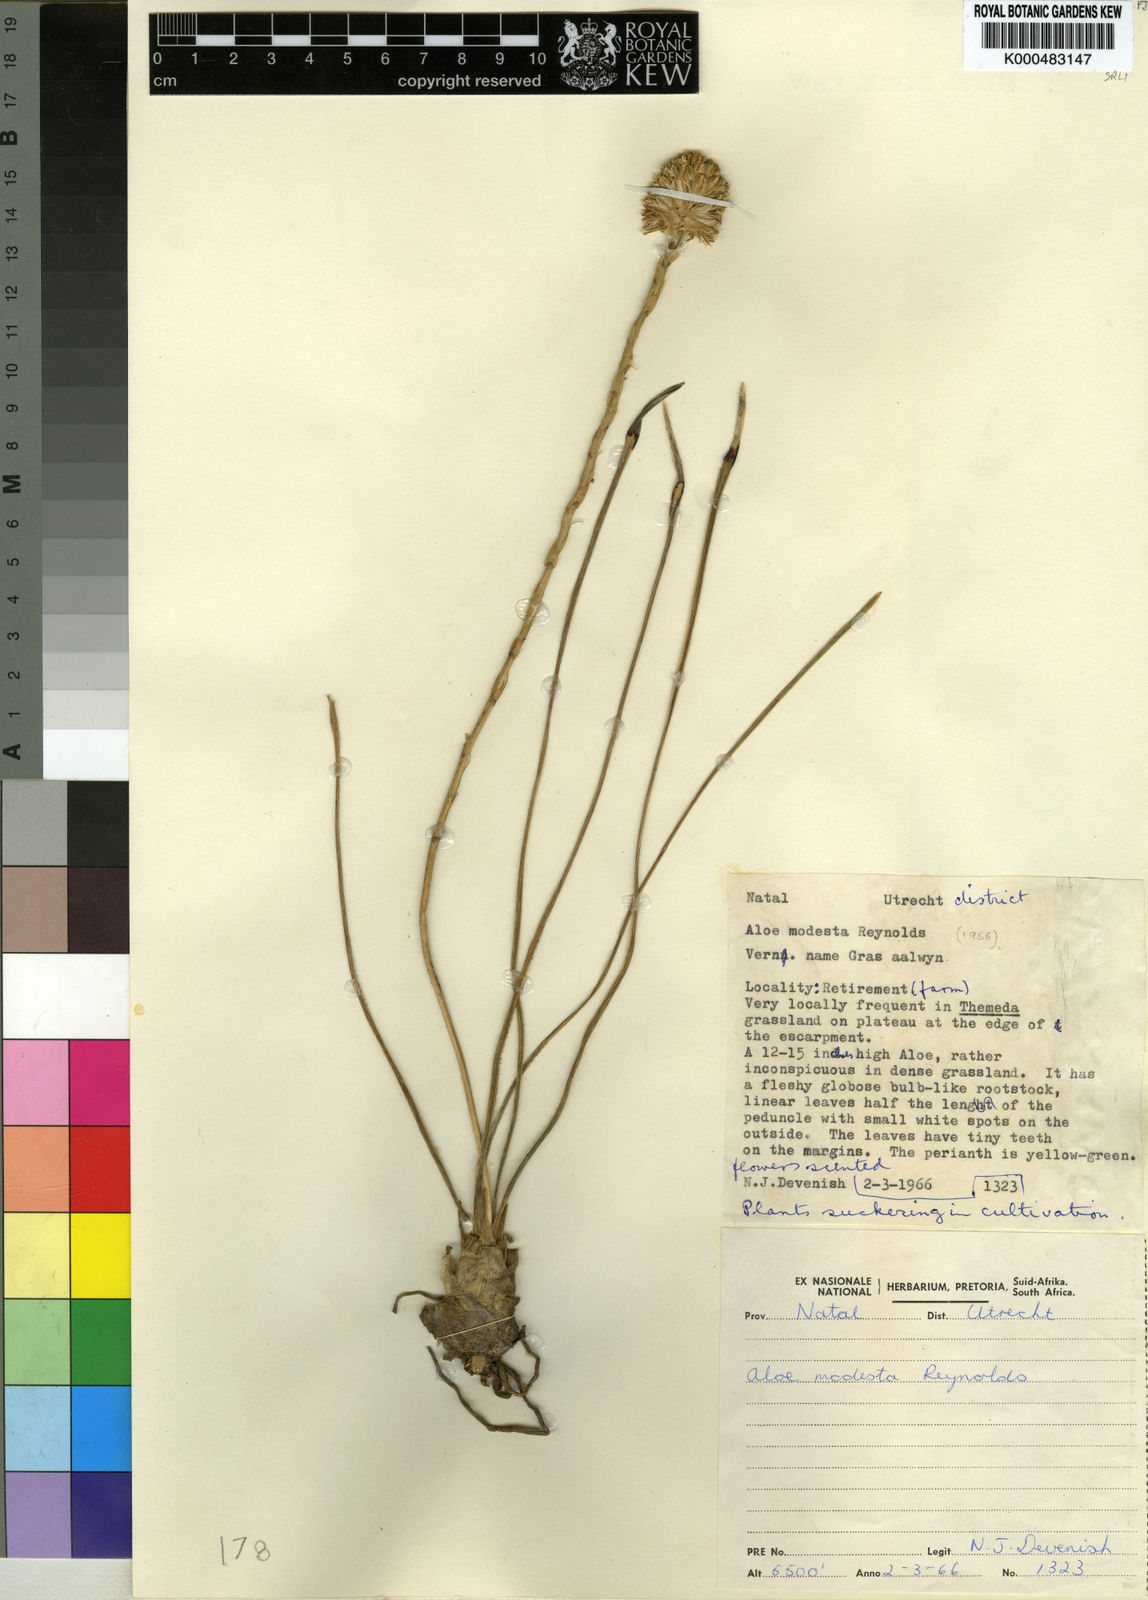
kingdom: Plantae
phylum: Tracheophyta
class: Liliopsida
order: Asparagales
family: Asphodelaceae
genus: Aloe
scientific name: Aloe modesta
